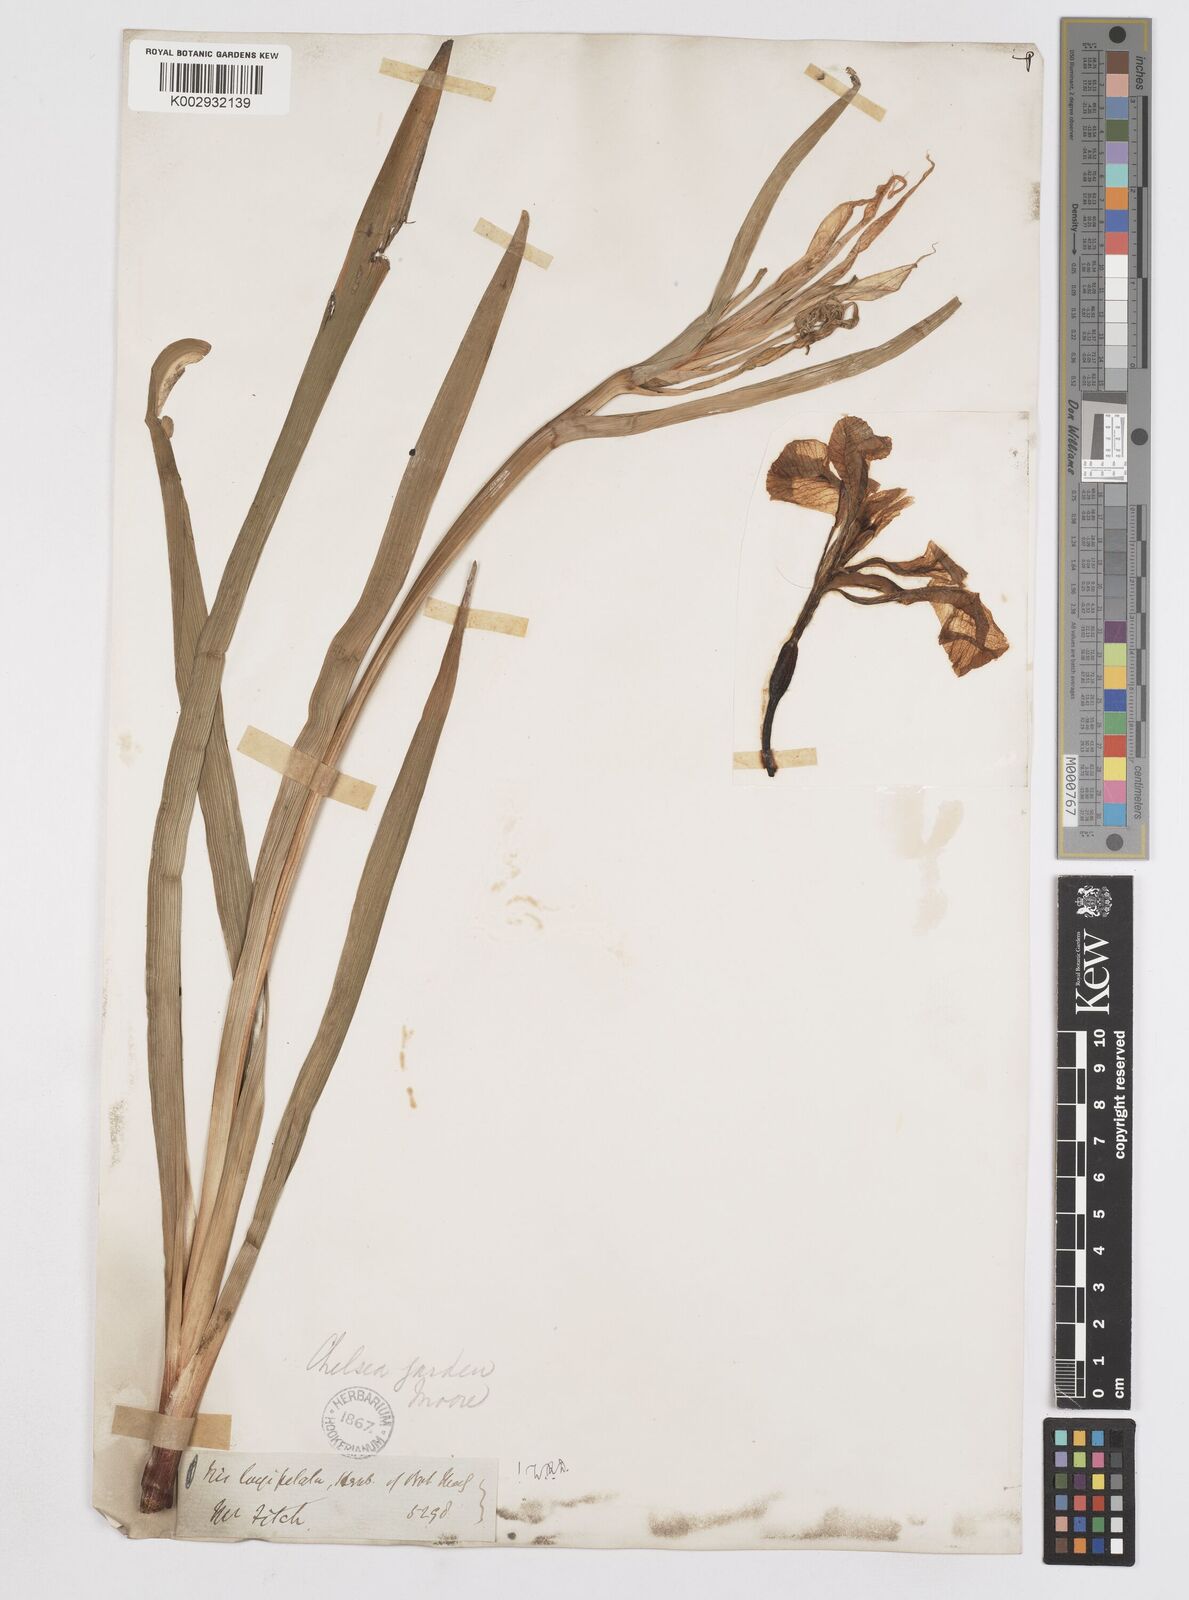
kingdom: Plantae
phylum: Tracheophyta
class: Liliopsida
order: Asparagales
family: Iridaceae
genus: Iris
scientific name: Iris longipetala
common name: Long-petal iris
